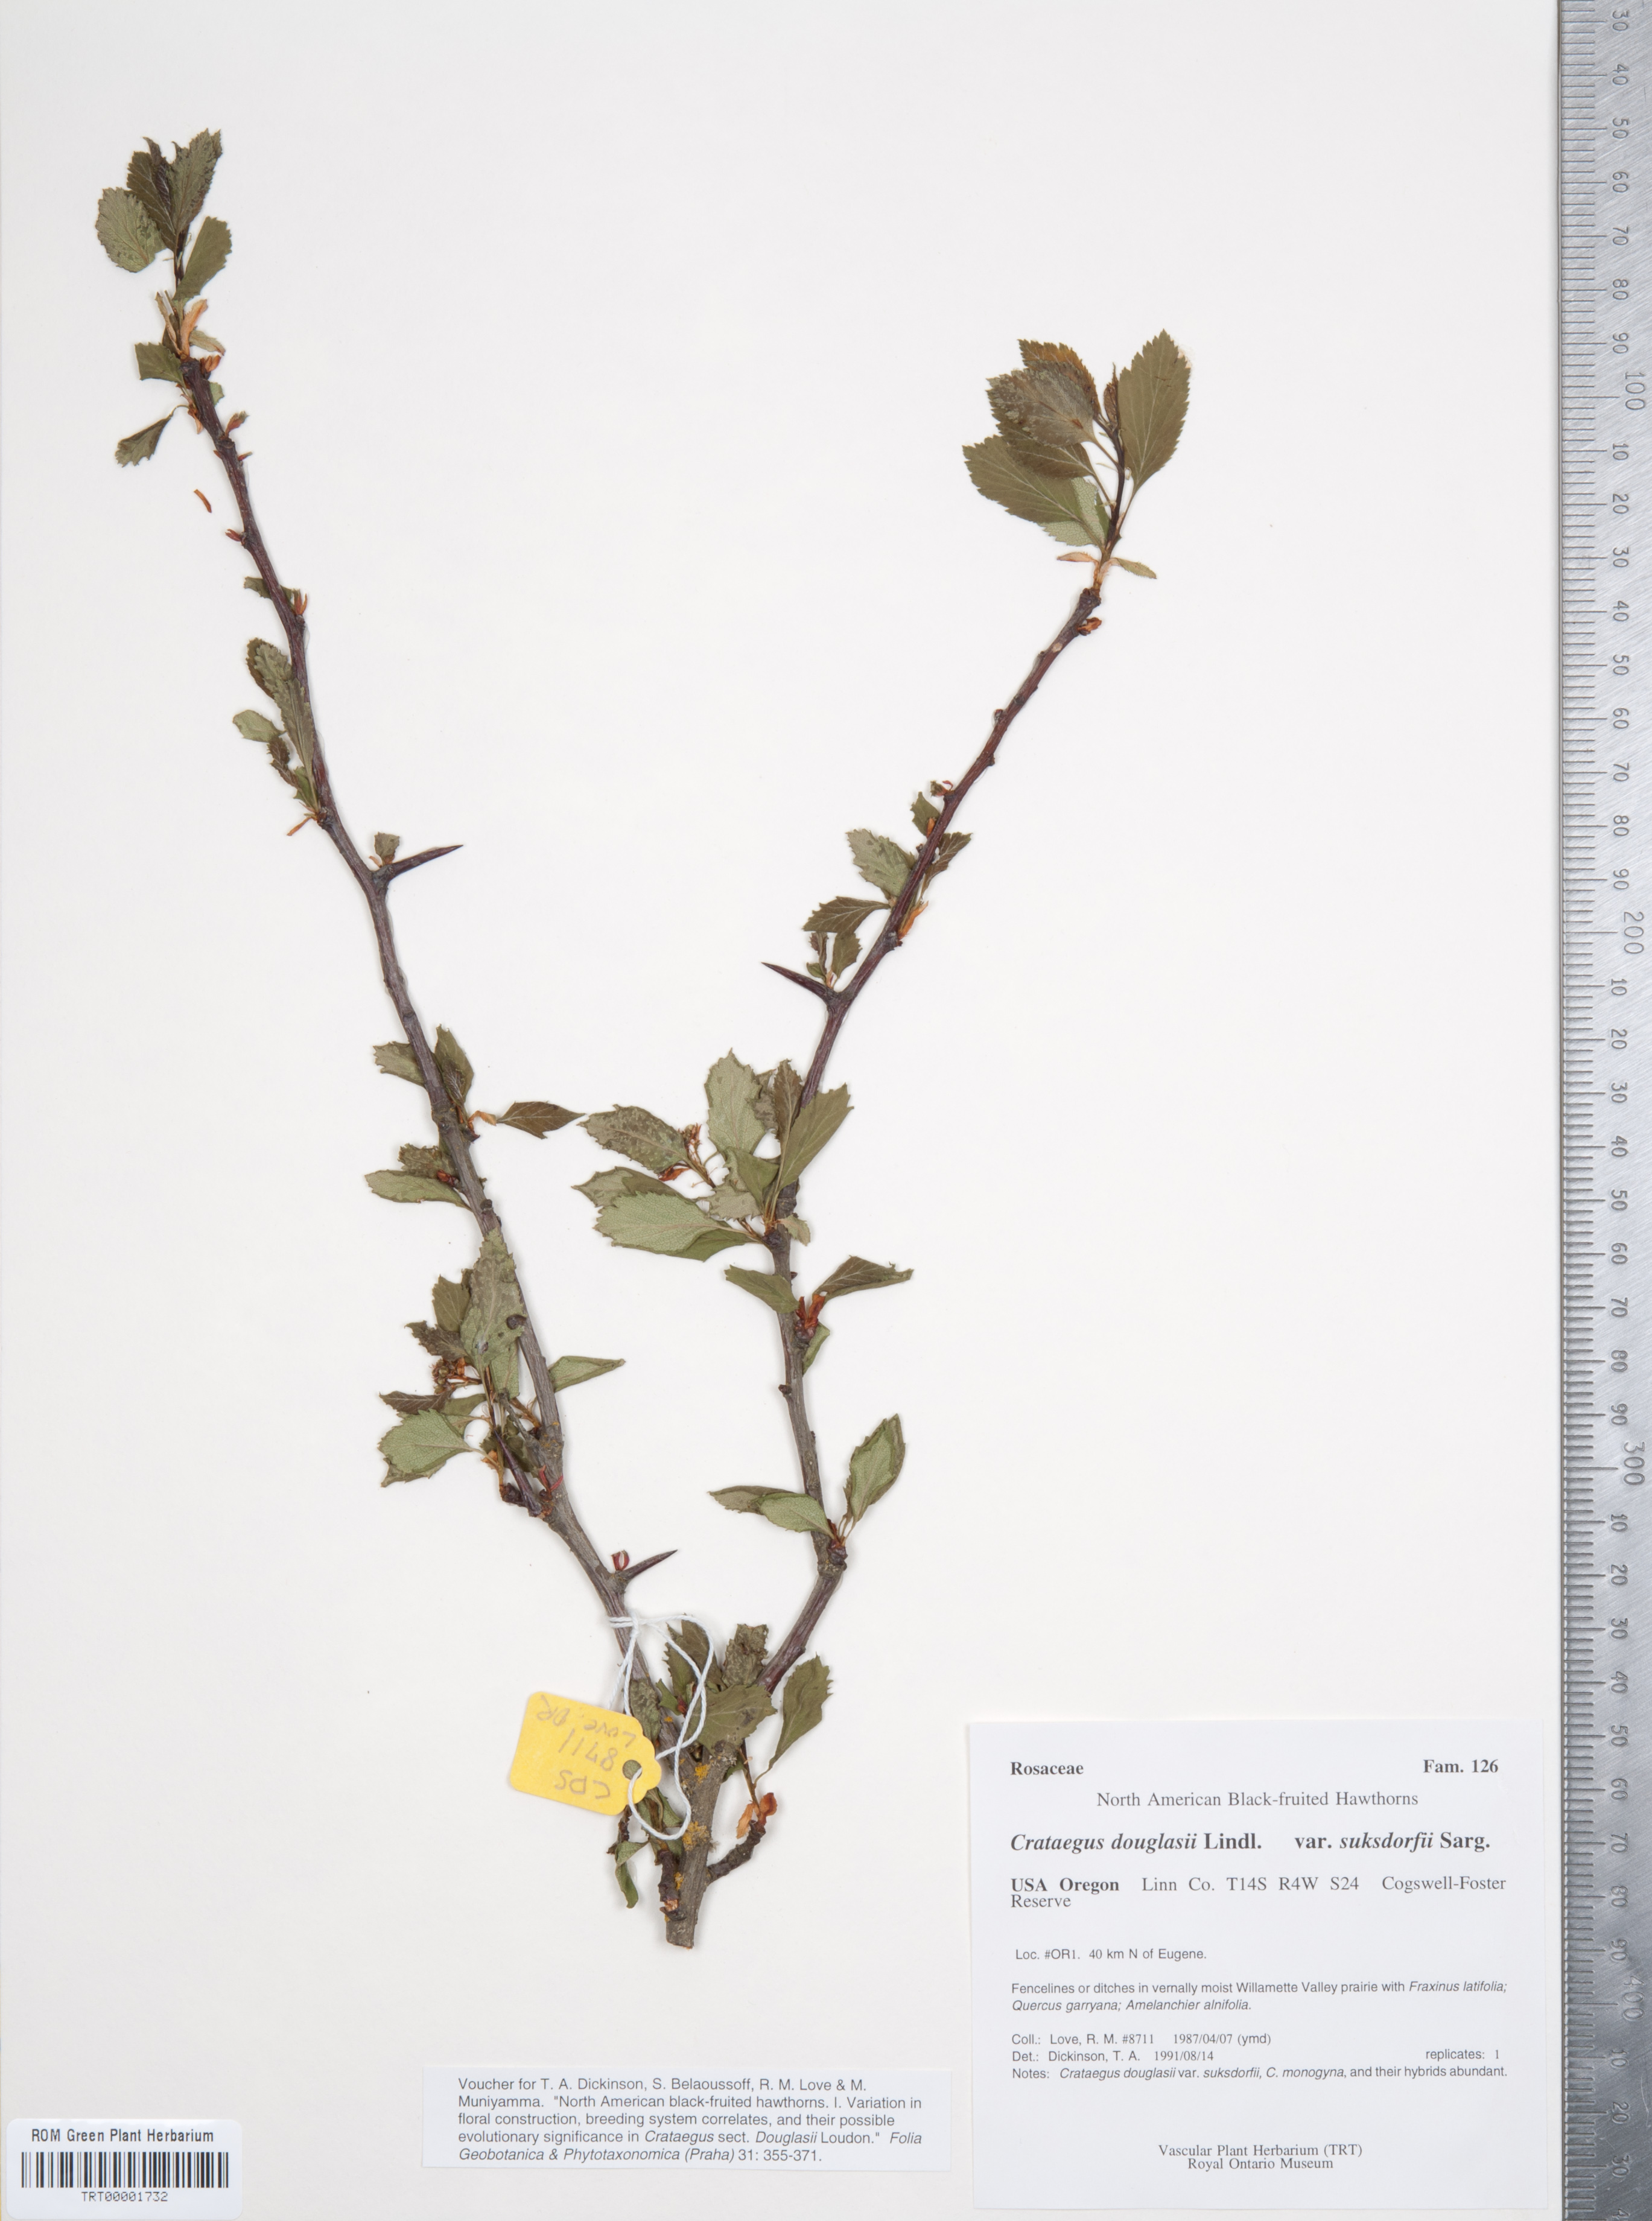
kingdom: Plantae
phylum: Tracheophyta
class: Magnoliopsida
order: Rosales
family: Rosaceae
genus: Crataegus
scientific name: Crataegus gaylussacia
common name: Huckleberry hawthorn
